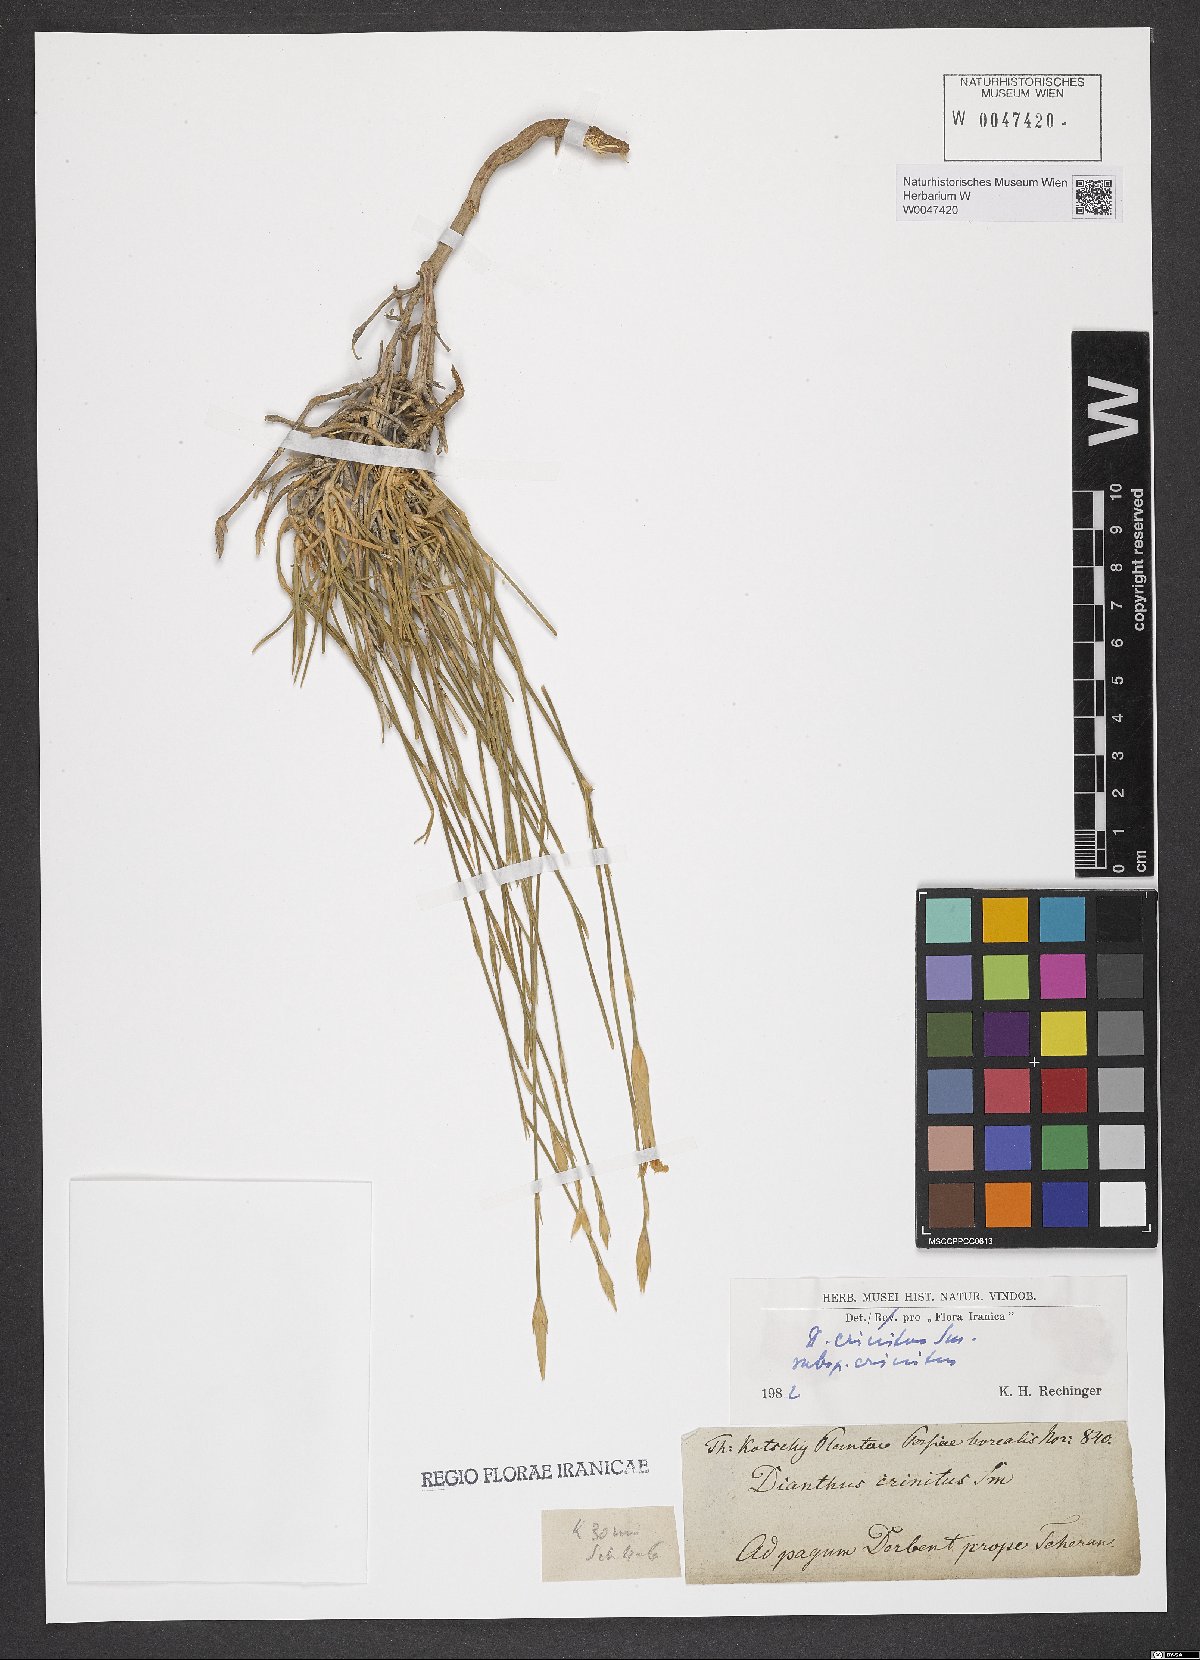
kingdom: Plantae
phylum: Tracheophyta
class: Magnoliopsida
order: Caryophyllales
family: Caryophyllaceae
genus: Dianthus
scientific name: Dianthus crinitus
